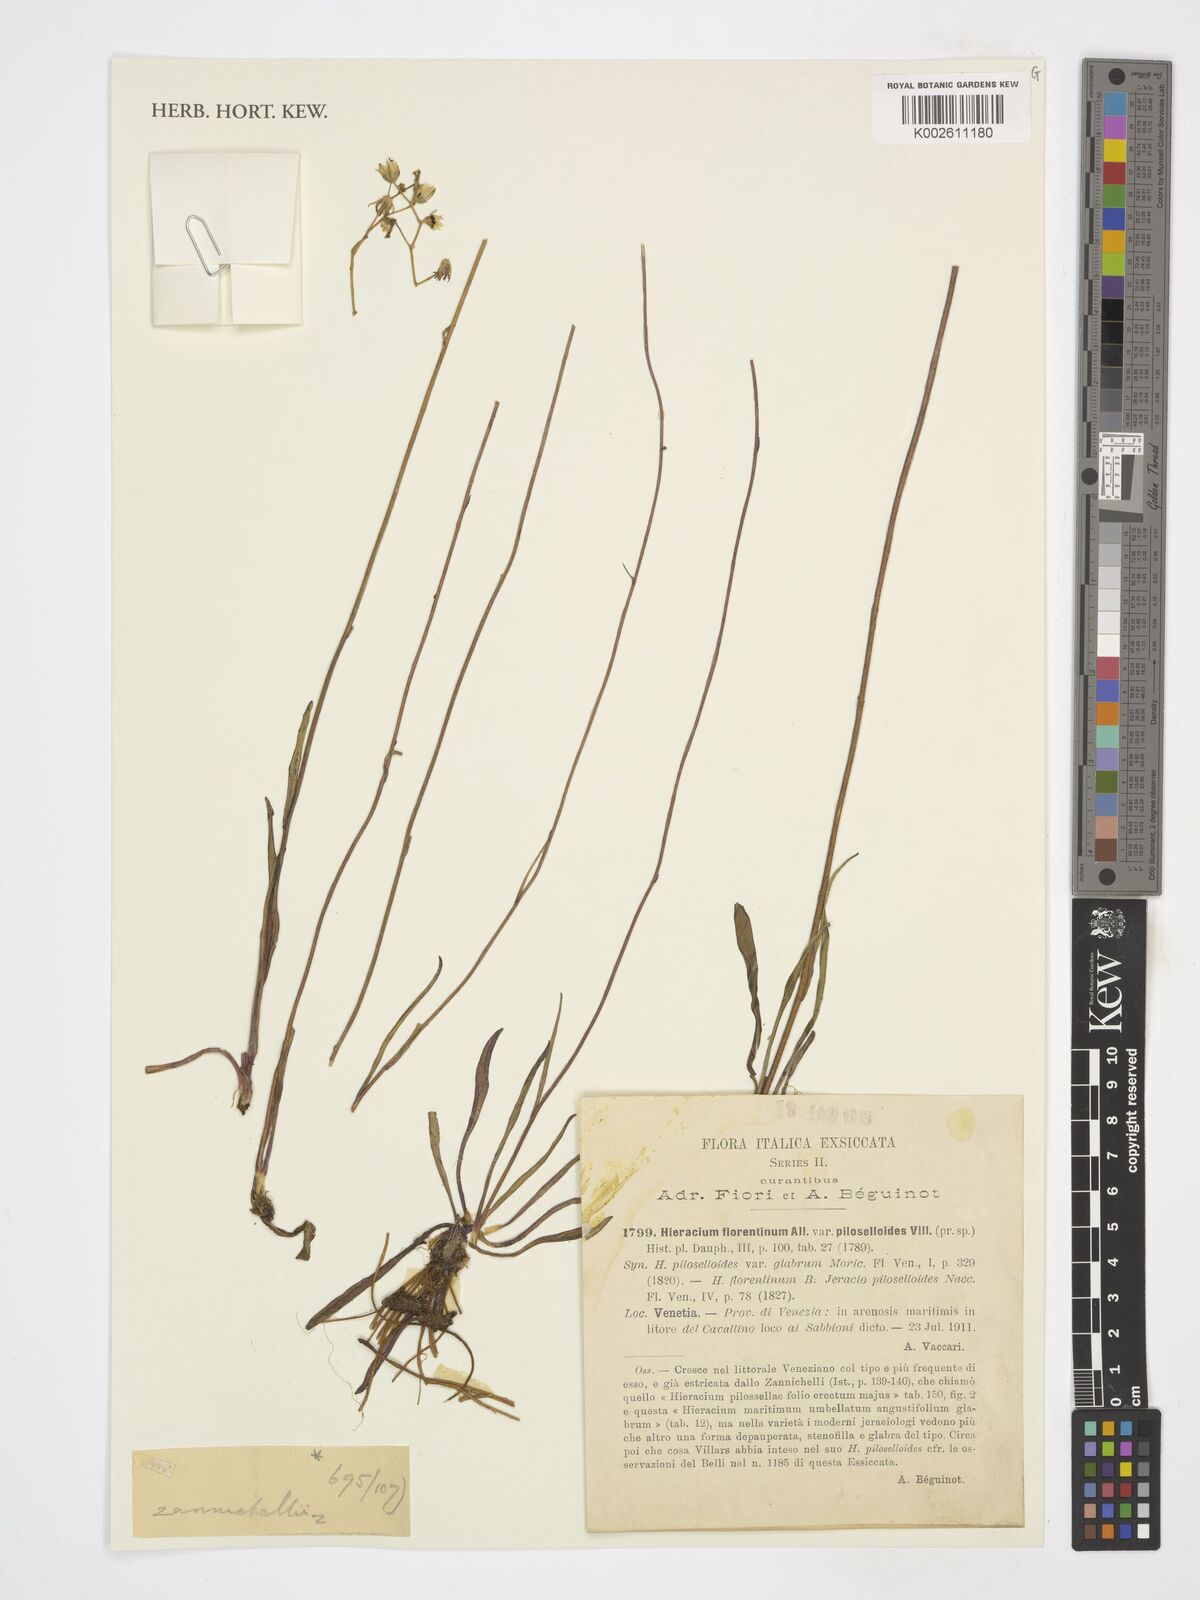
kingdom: Plantae
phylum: Tracheophyta
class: Magnoliopsida
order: Asterales
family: Asteraceae
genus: Pilosella
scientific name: Pilosella piloselloides
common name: Glaucous king-devil
